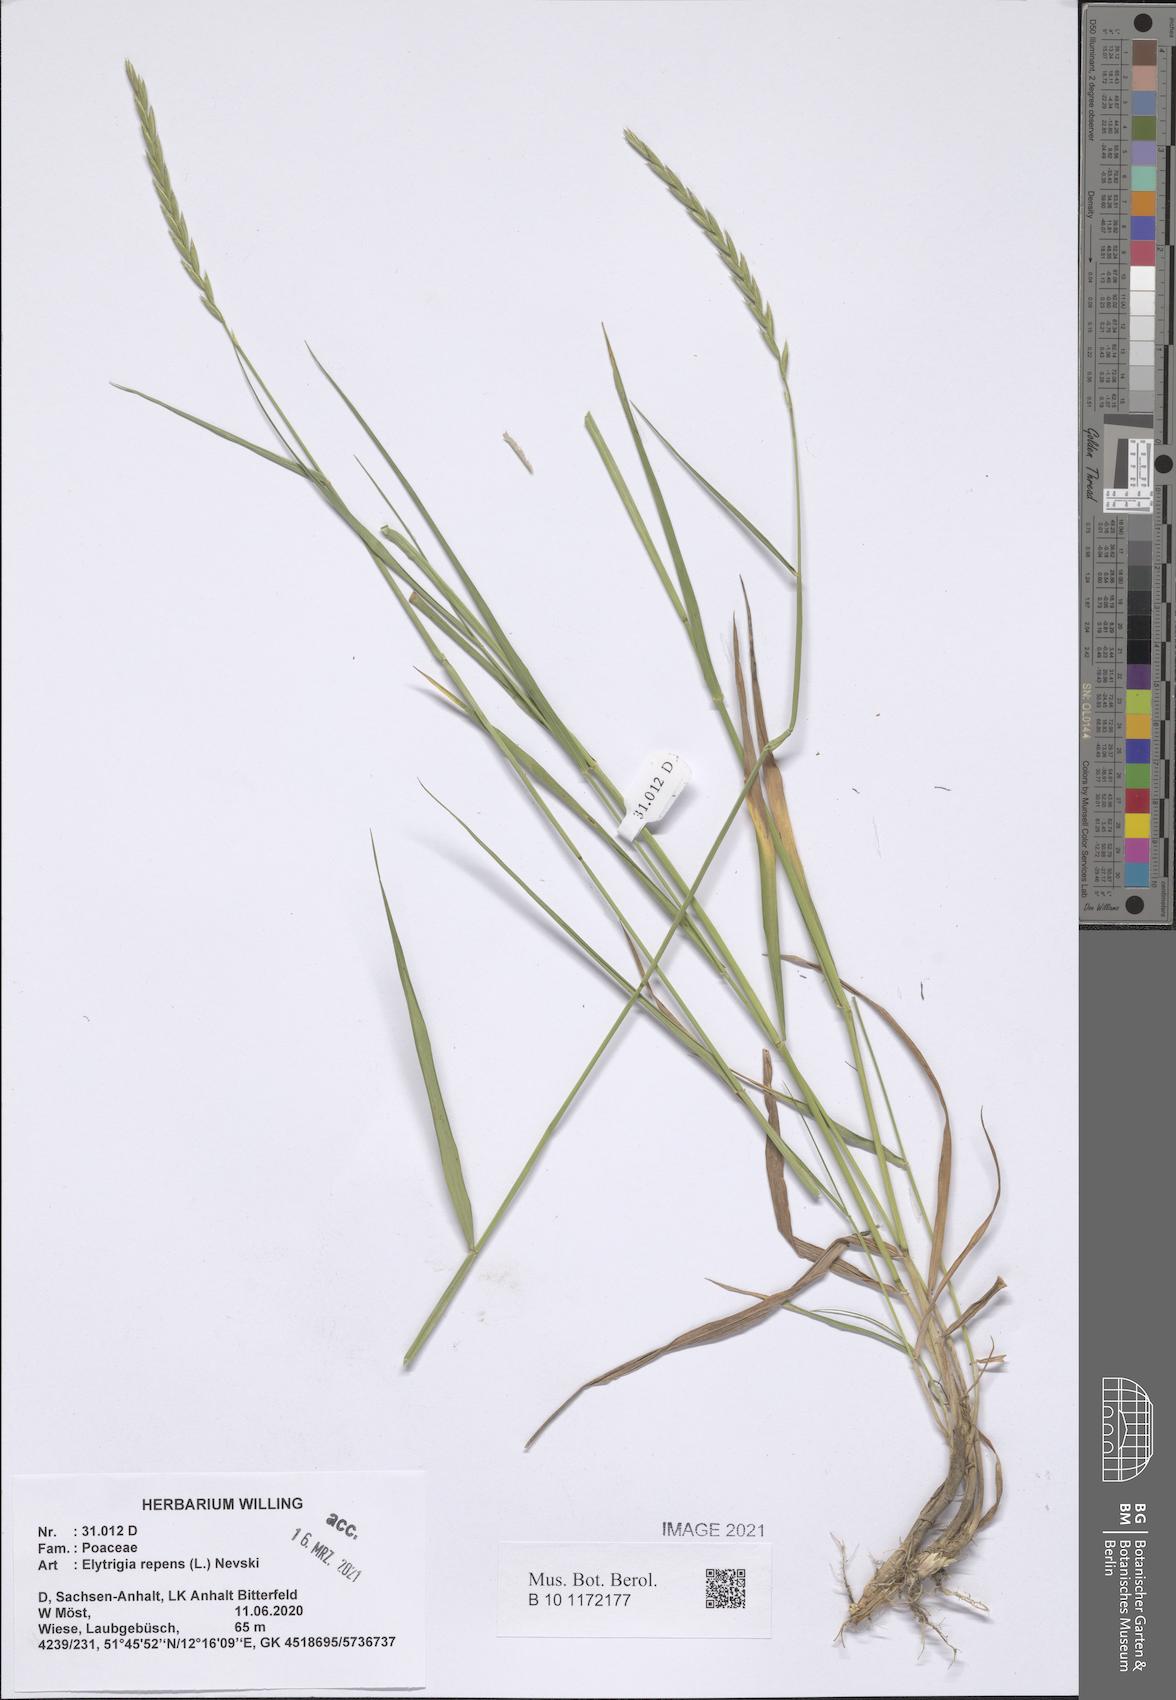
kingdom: Plantae
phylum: Tracheophyta
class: Liliopsida
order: Poales
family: Poaceae
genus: Elymus
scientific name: Elymus repens
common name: Quackgrass
